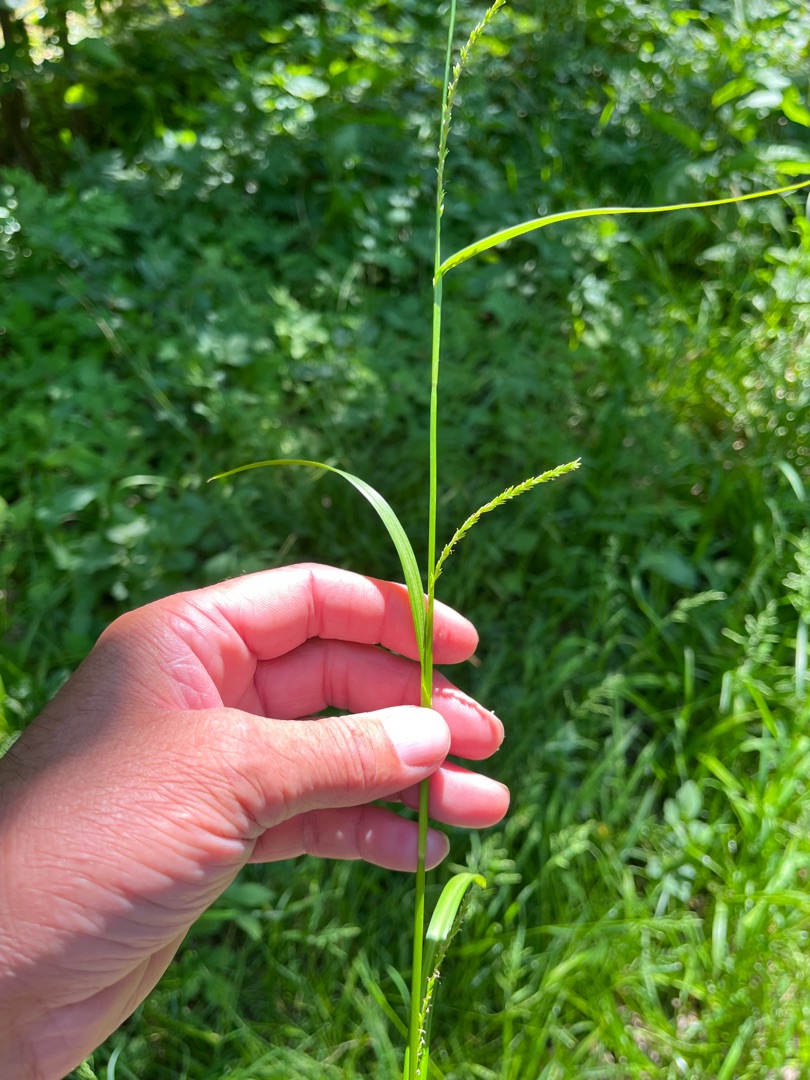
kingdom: Plantae
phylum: Tracheophyta
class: Liliopsida
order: Poales
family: Cyperaceae
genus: Carex
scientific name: Carex strigosa
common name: Tyndakset star
